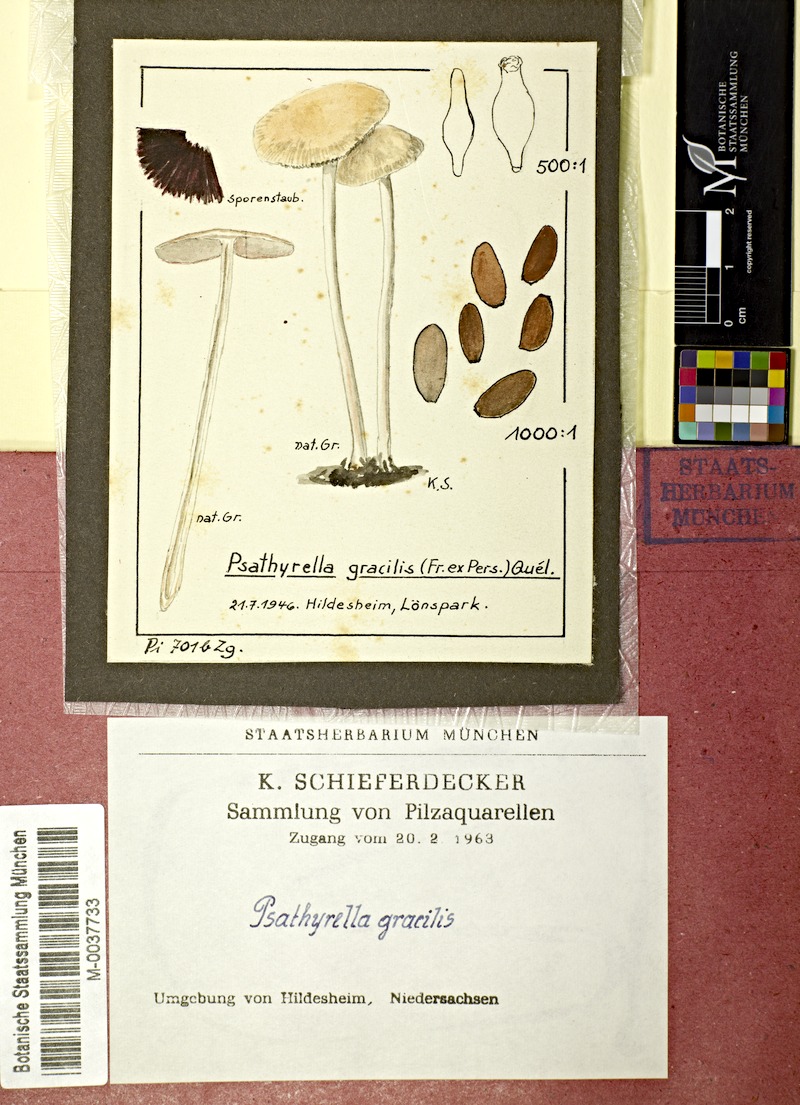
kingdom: Fungi
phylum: Basidiomycota
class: Agaricomycetes
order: Agaricales
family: Psathyrellaceae
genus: Psathyrella
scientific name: Psathyrella corrugis
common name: Red edge brittlestem
